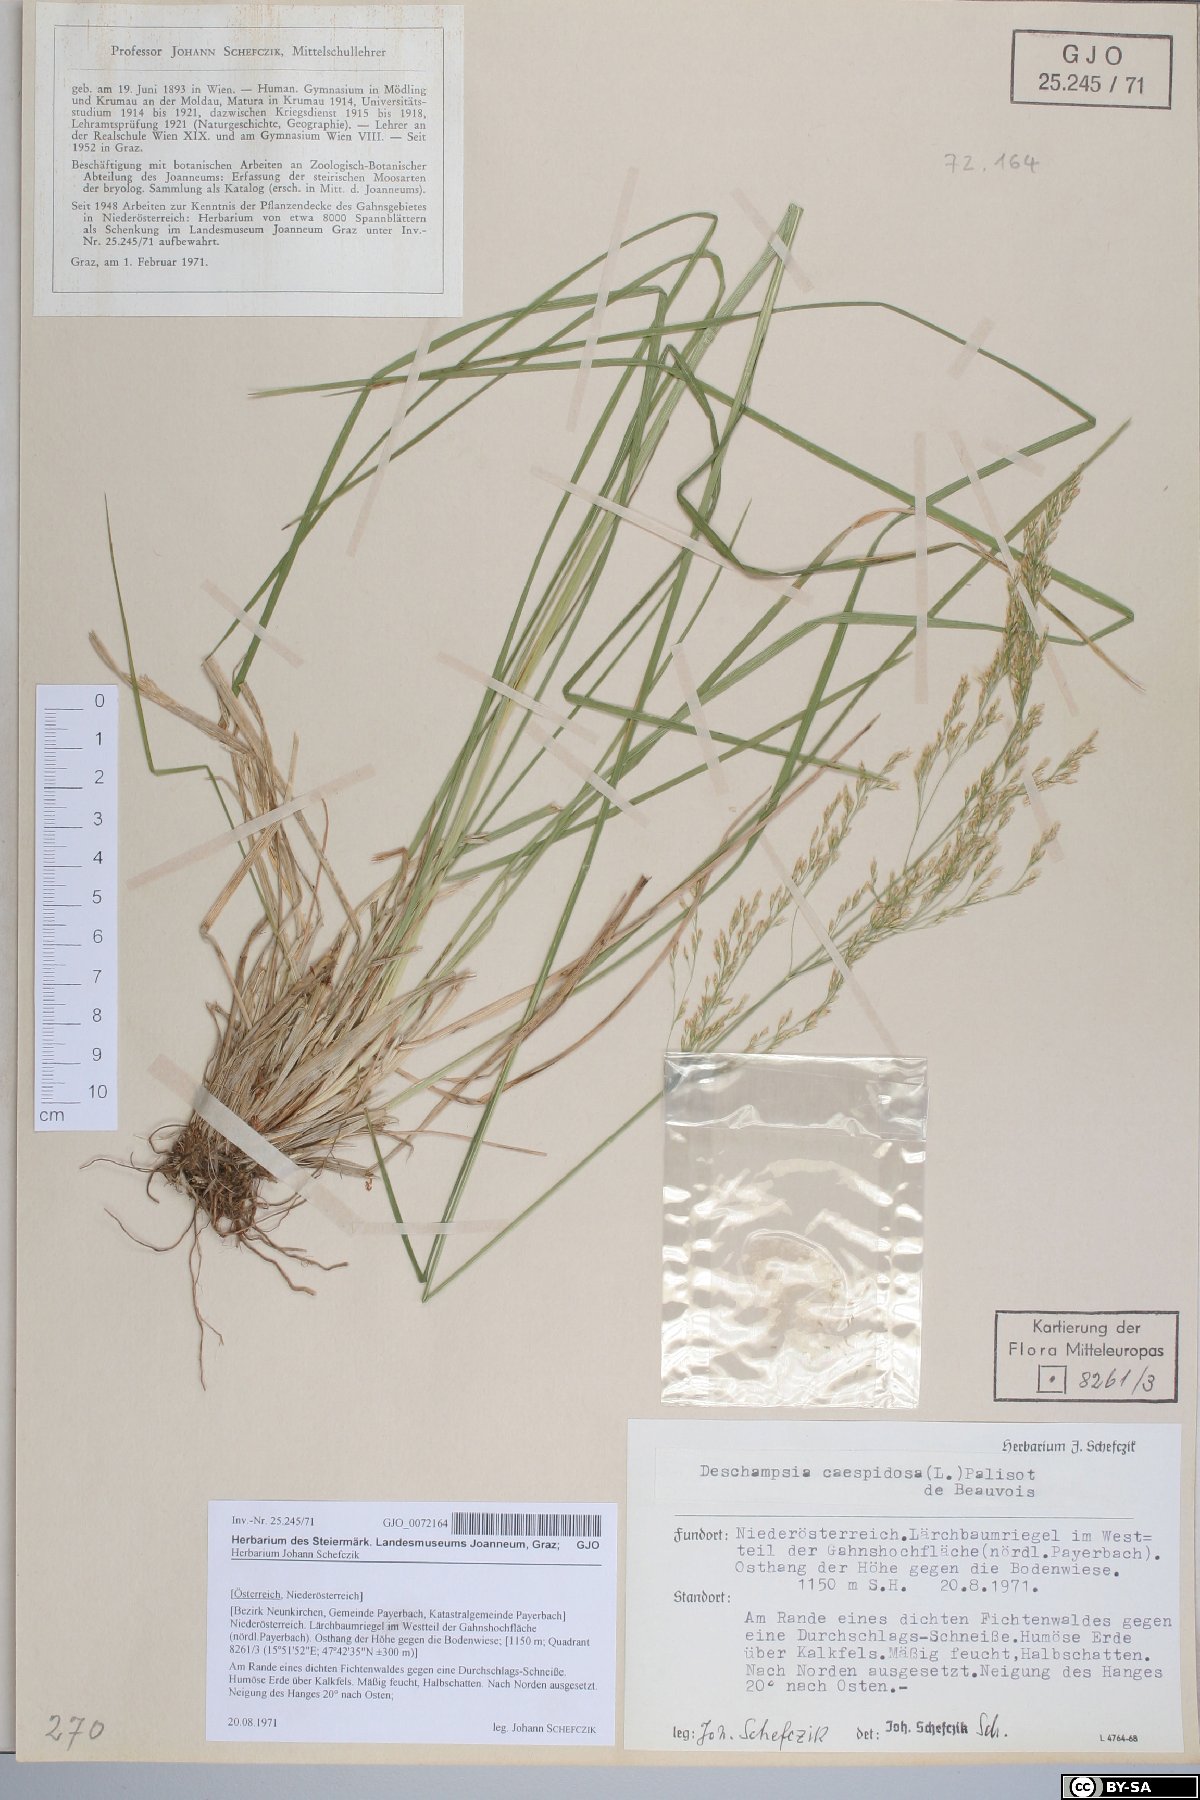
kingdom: Plantae
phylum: Tracheophyta
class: Liliopsida
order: Poales
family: Poaceae
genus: Deschampsia
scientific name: Deschampsia cespitosa
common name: Tufted hair-grass
